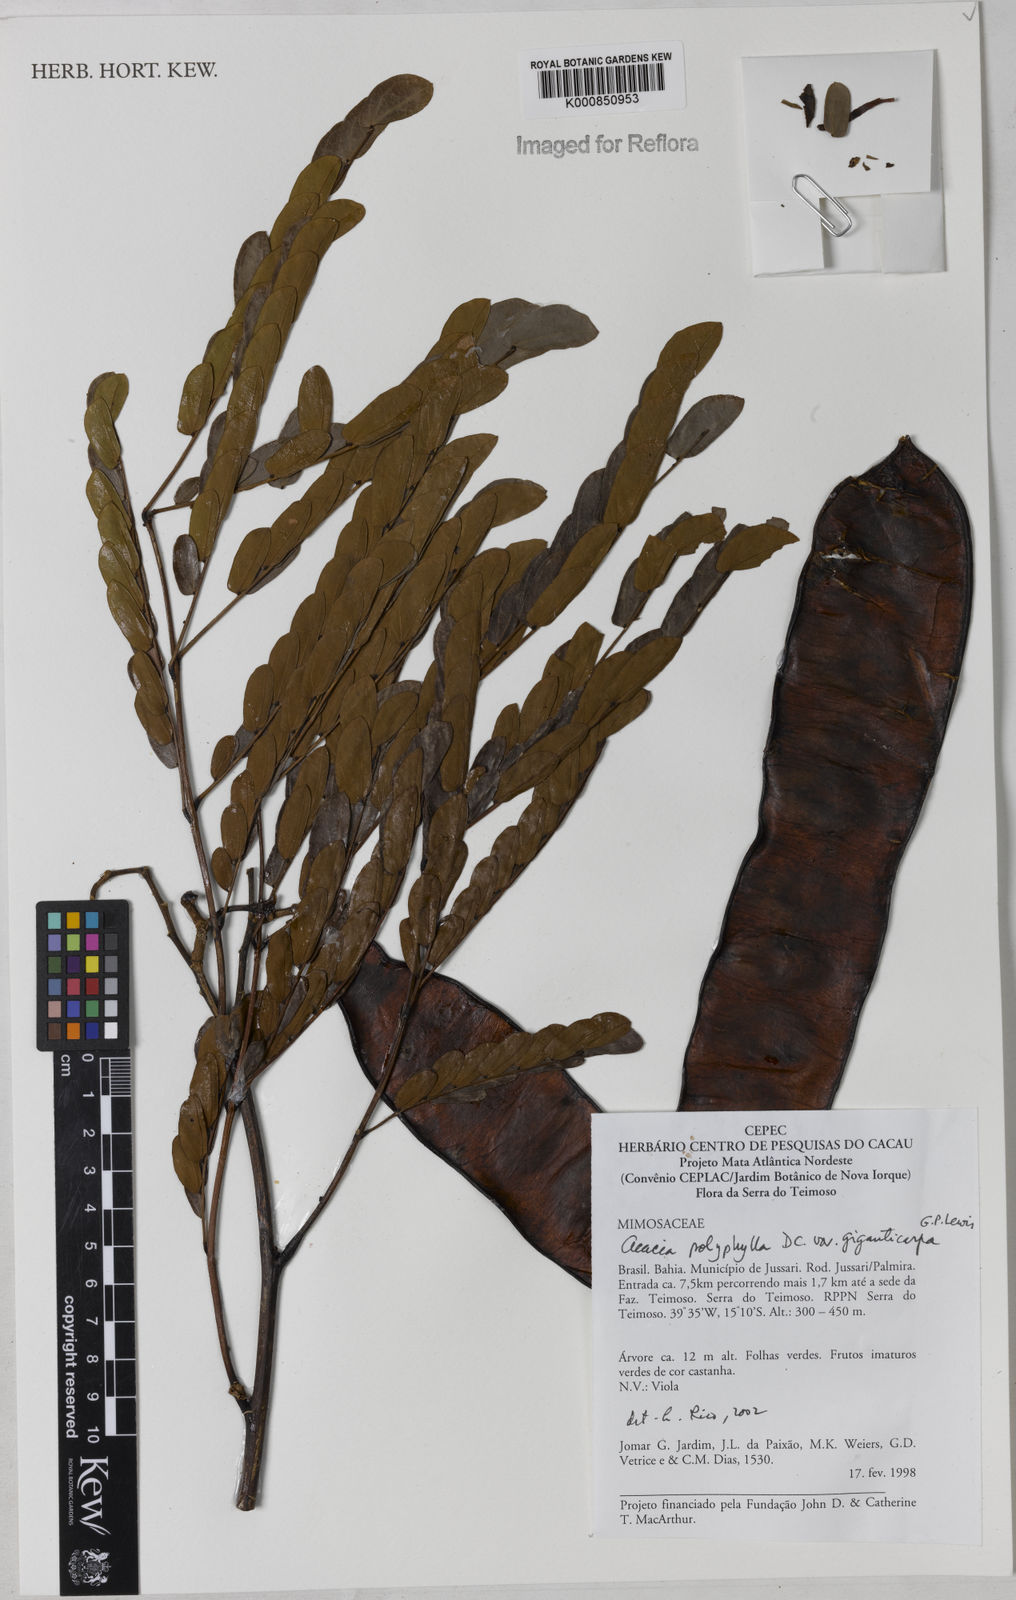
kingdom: Plantae
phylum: Tracheophyta
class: Magnoliopsida
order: Fabales
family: Fabaceae
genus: Senegalia
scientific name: Senegalia giganticarpa
